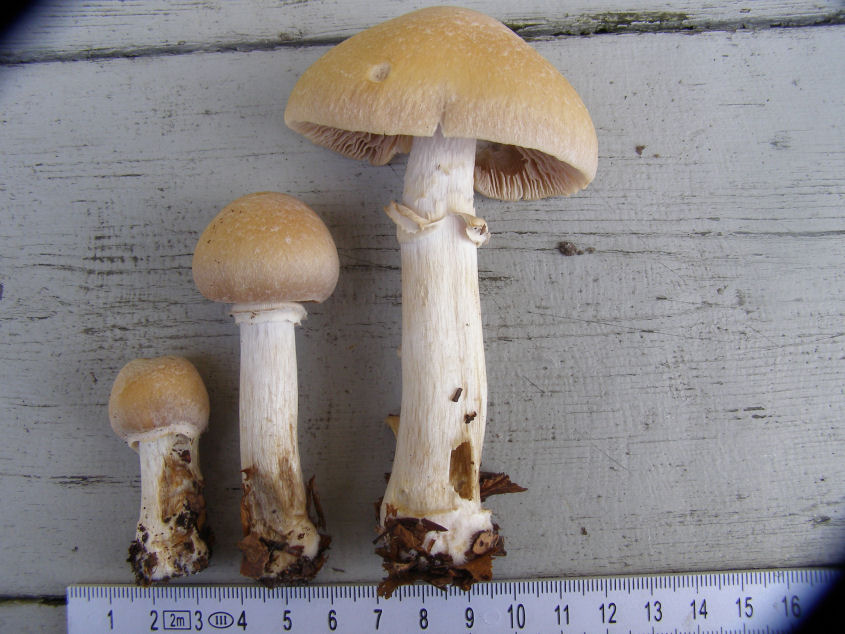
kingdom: Fungi
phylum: Basidiomycota
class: Agaricomycetes
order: Agaricales
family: Cortinariaceae
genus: Cortinarius
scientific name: Cortinarius caperatus
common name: klidhat
